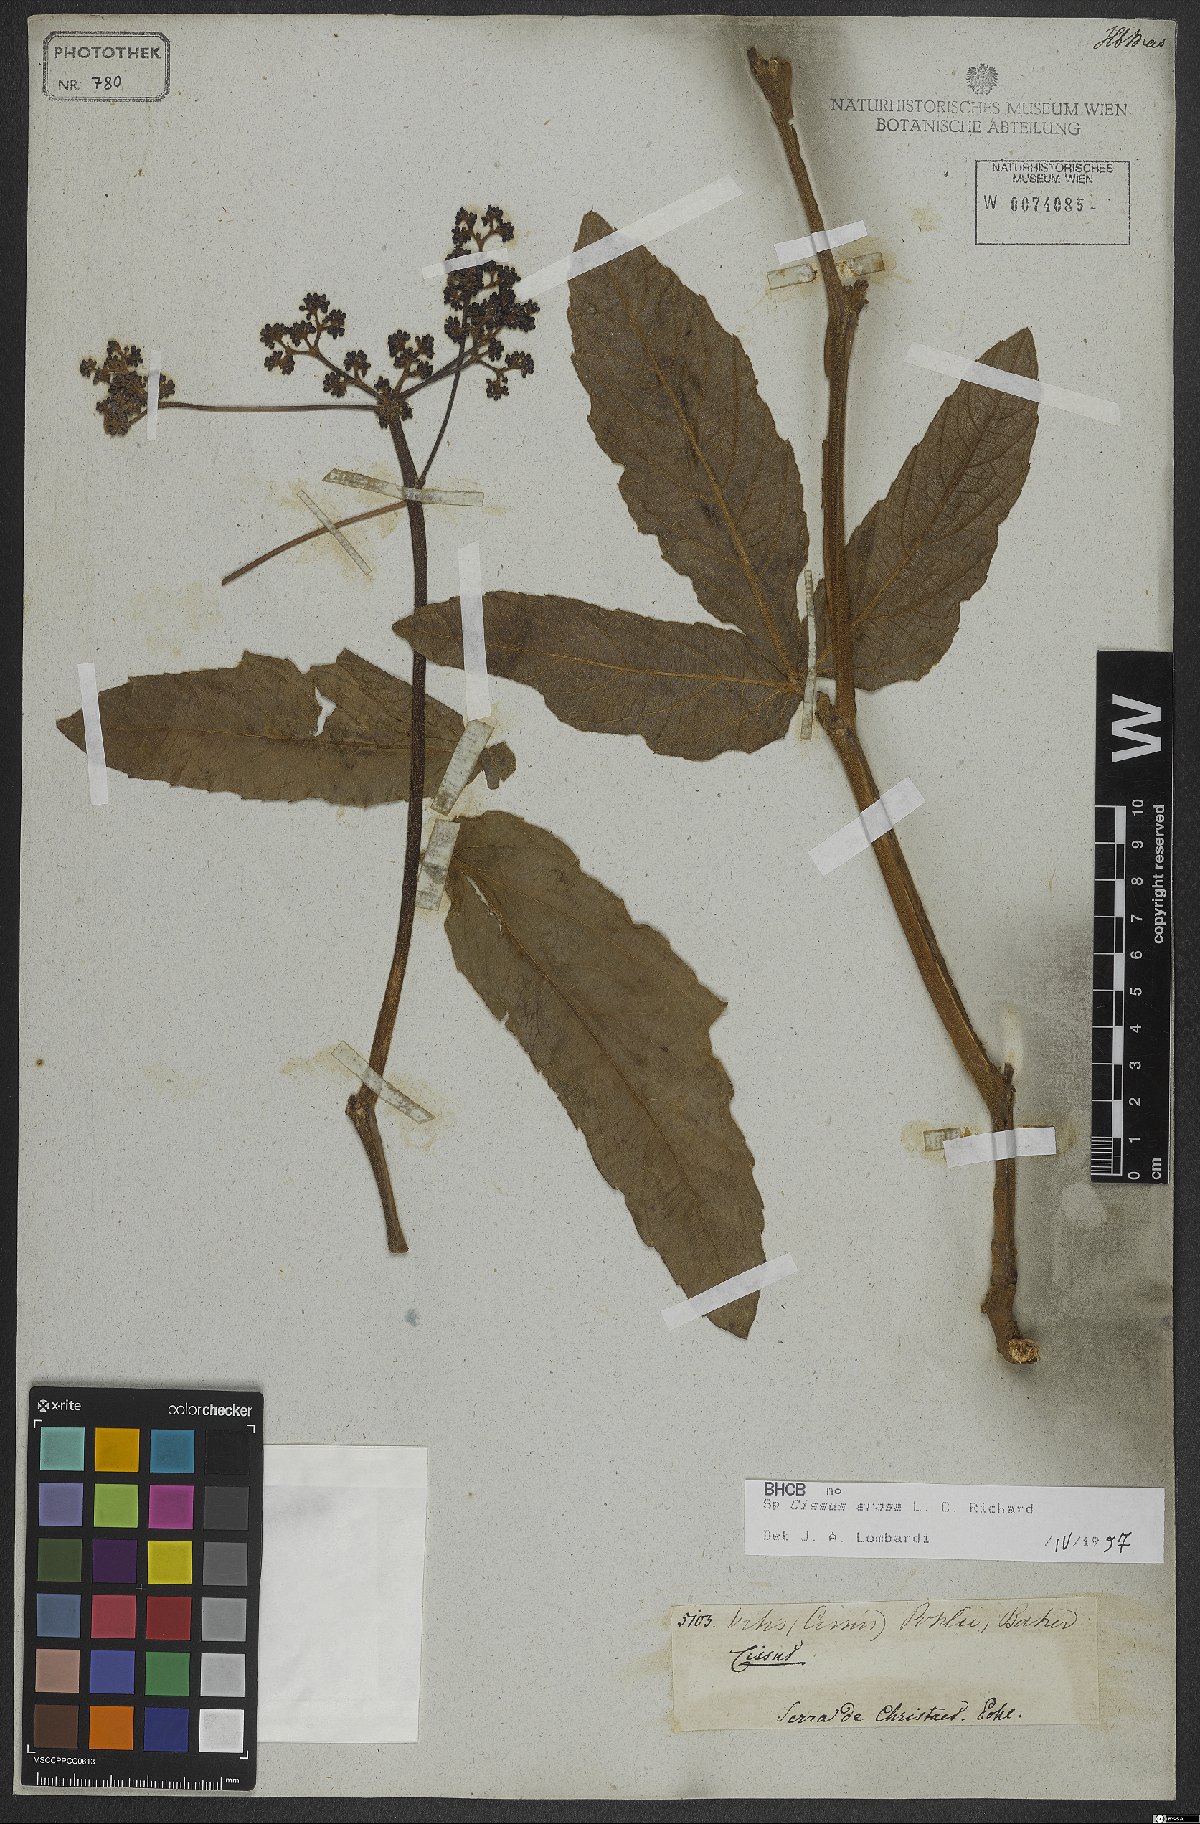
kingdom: Plantae
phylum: Tracheophyta
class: Magnoliopsida
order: Vitales
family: Vitaceae
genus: Cissus
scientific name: Cissus erosa
